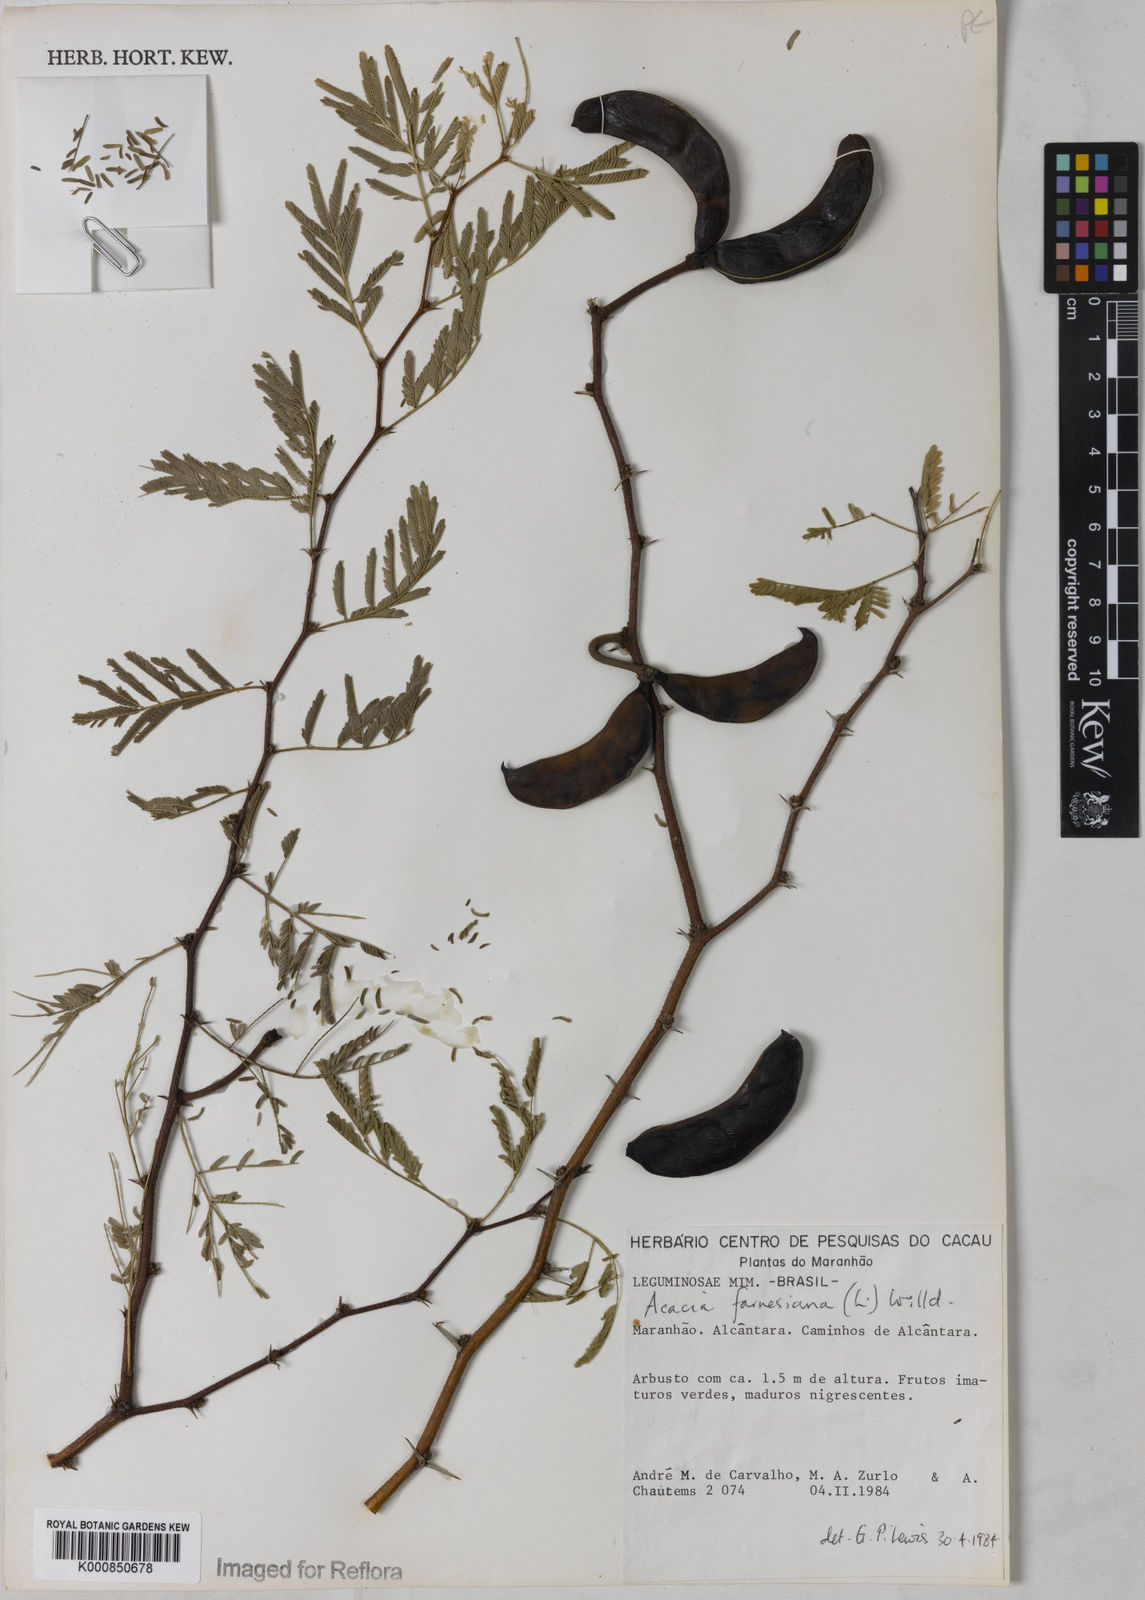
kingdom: Plantae
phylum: Tracheophyta
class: Magnoliopsida
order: Fabales
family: Fabaceae
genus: Vachellia
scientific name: Vachellia farnesiana
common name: Sweet acacia
